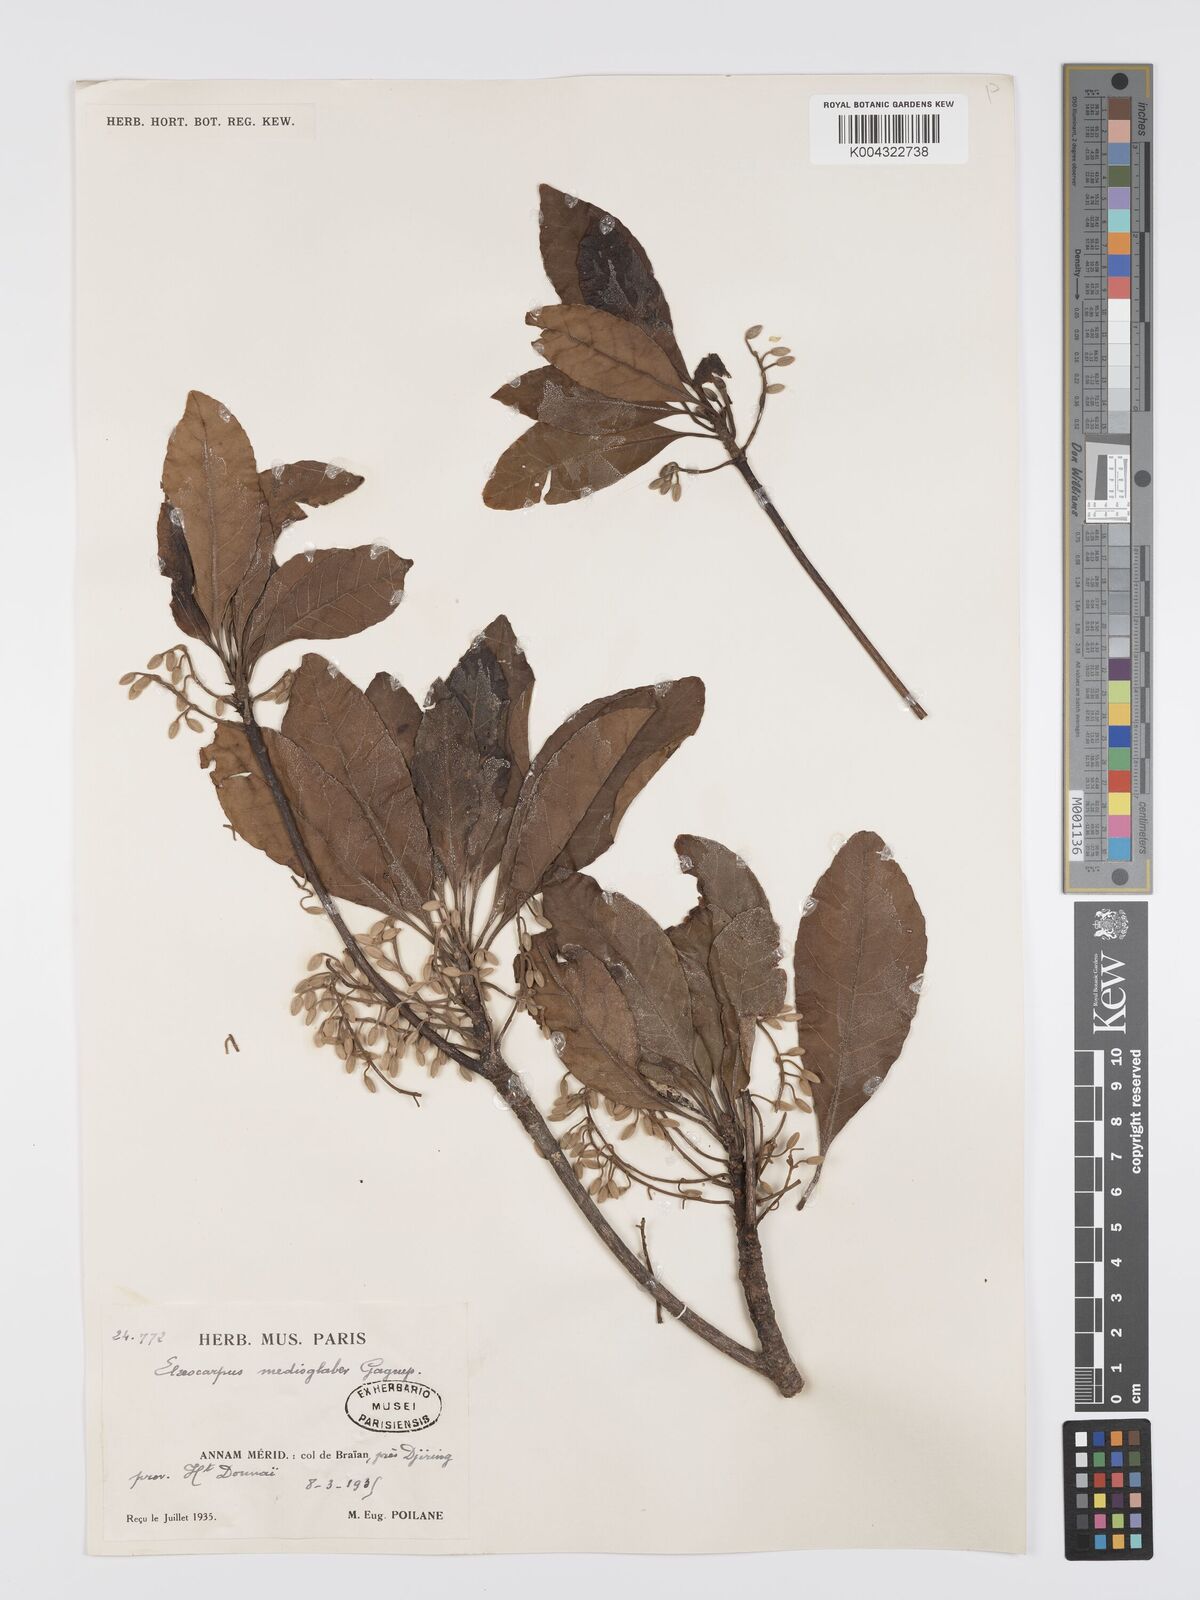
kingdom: Plantae
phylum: Tracheophyta
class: Magnoliopsida
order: Oxalidales
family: Elaeocarpaceae
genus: Elaeocarpus
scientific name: Elaeocarpus medioglaber
